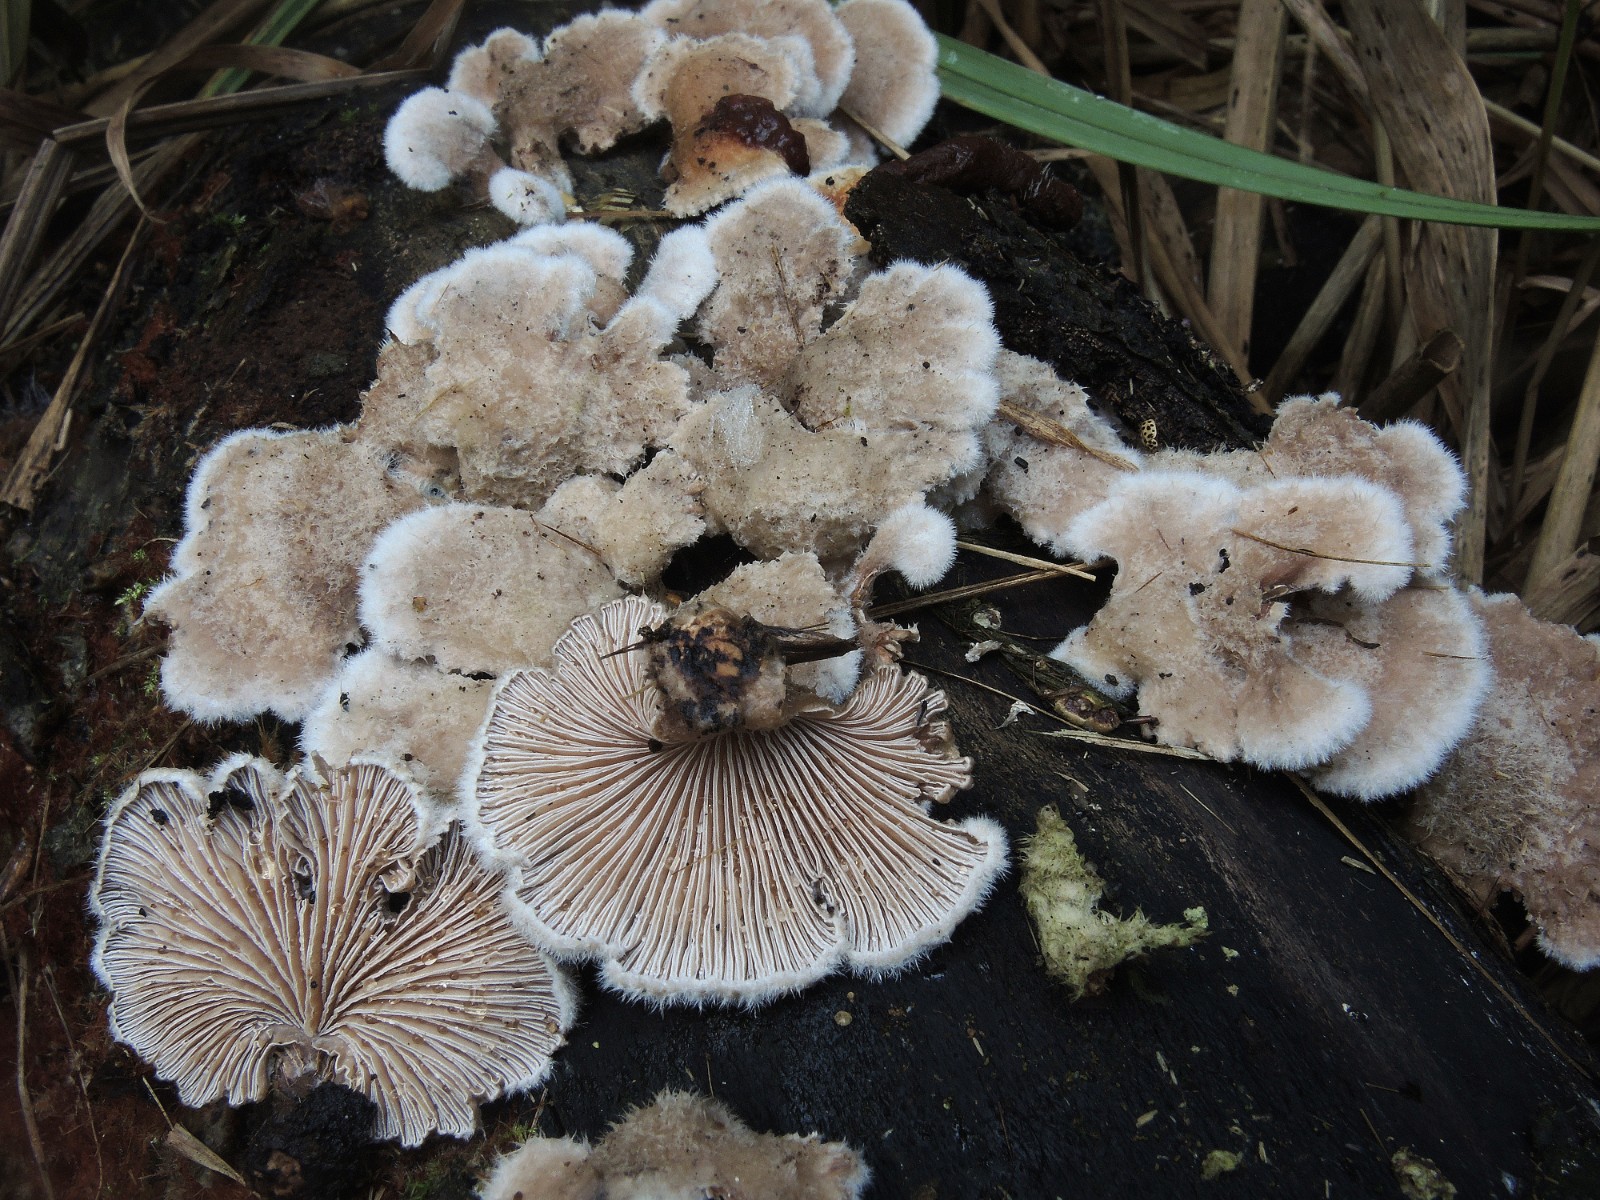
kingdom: Fungi
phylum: Basidiomycota
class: Agaricomycetes
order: Agaricales
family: Schizophyllaceae
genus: Schizophyllum
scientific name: Schizophyllum commune
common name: kløvblad
